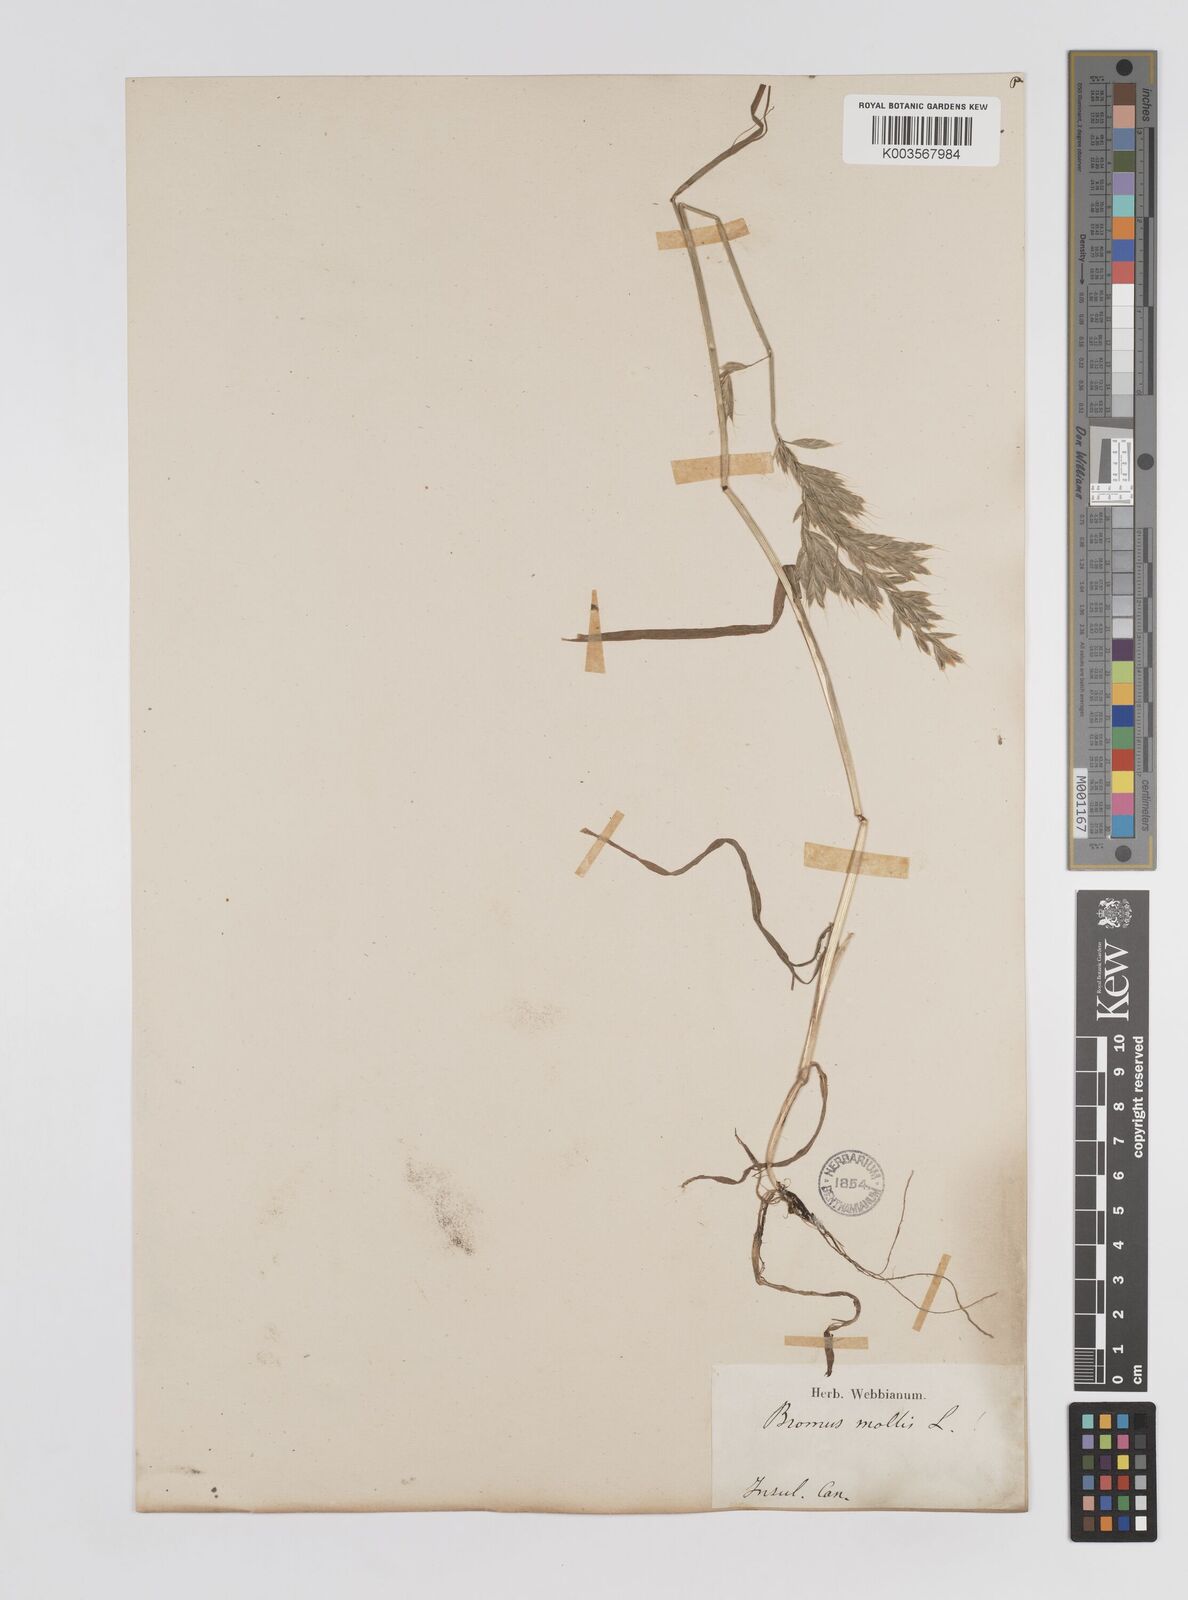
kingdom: Plantae
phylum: Tracheophyta
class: Liliopsida
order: Poales
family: Poaceae
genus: Bromus
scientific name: Bromus
